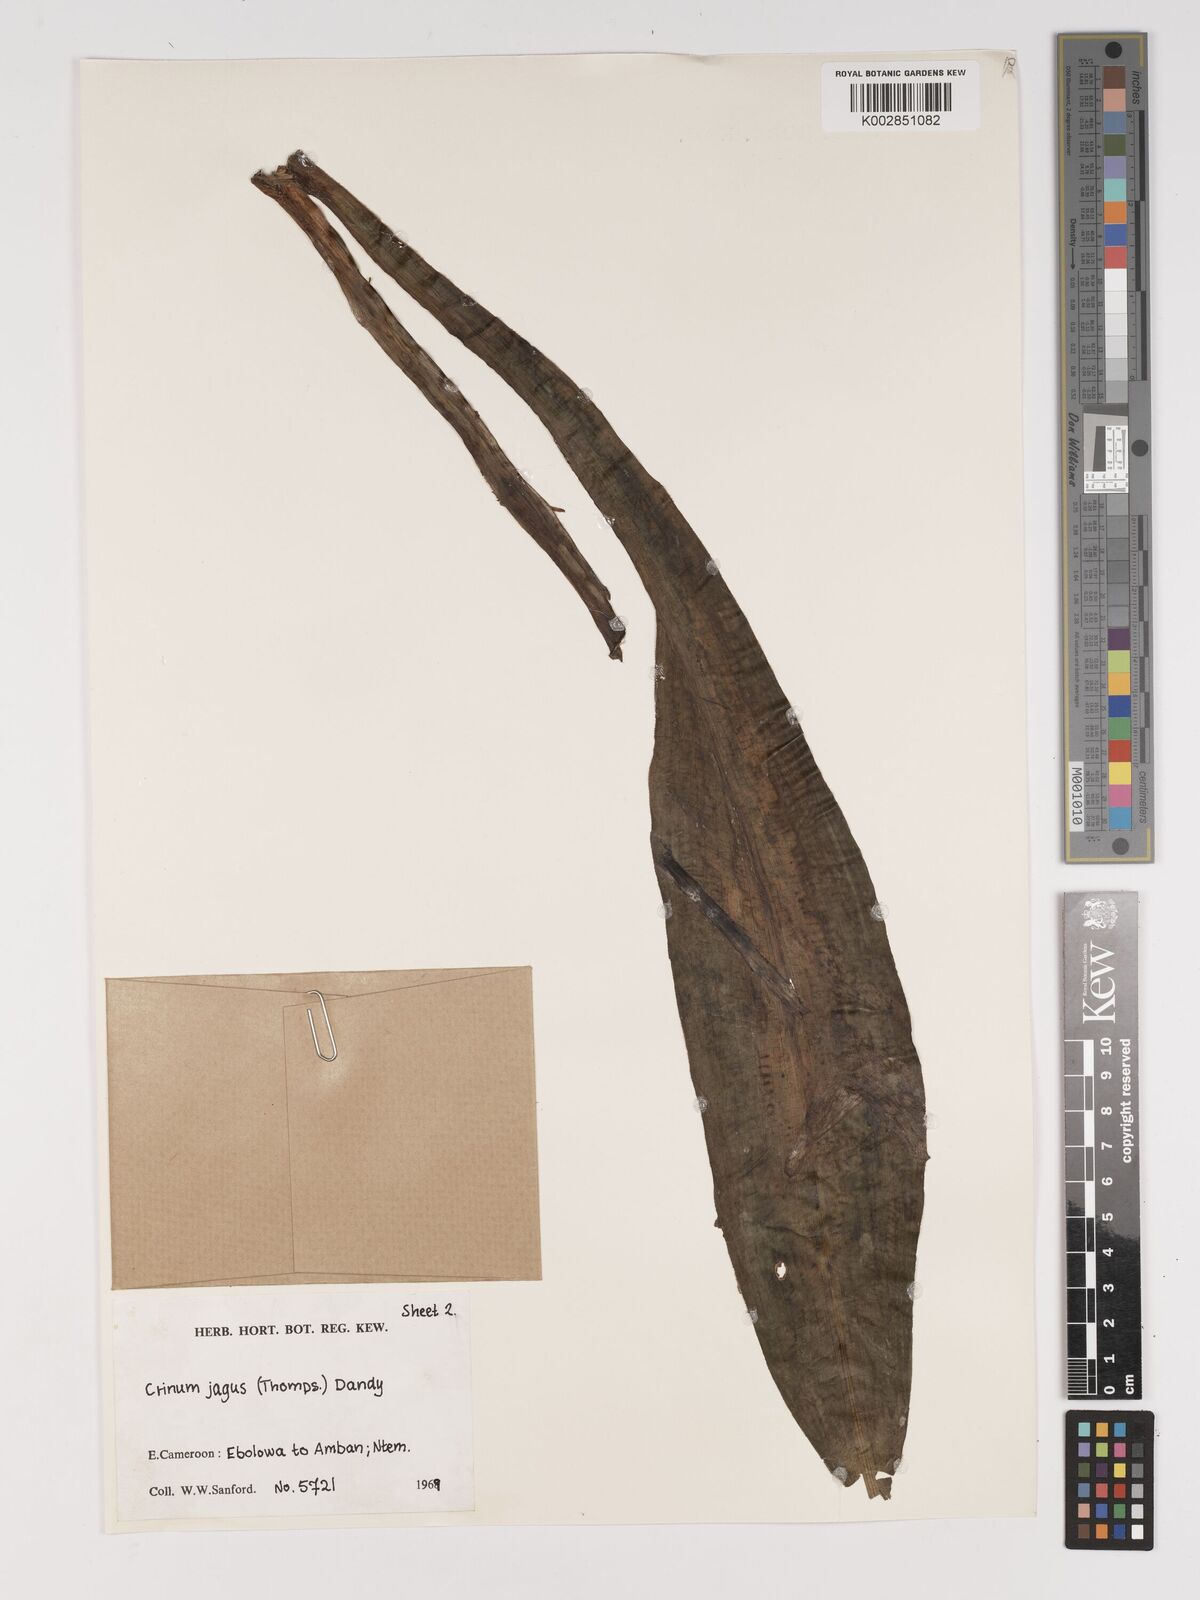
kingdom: Plantae
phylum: Tracheophyta
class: Liliopsida
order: Asparagales
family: Amaryllidaceae
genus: Crinum
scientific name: Crinum jagus
